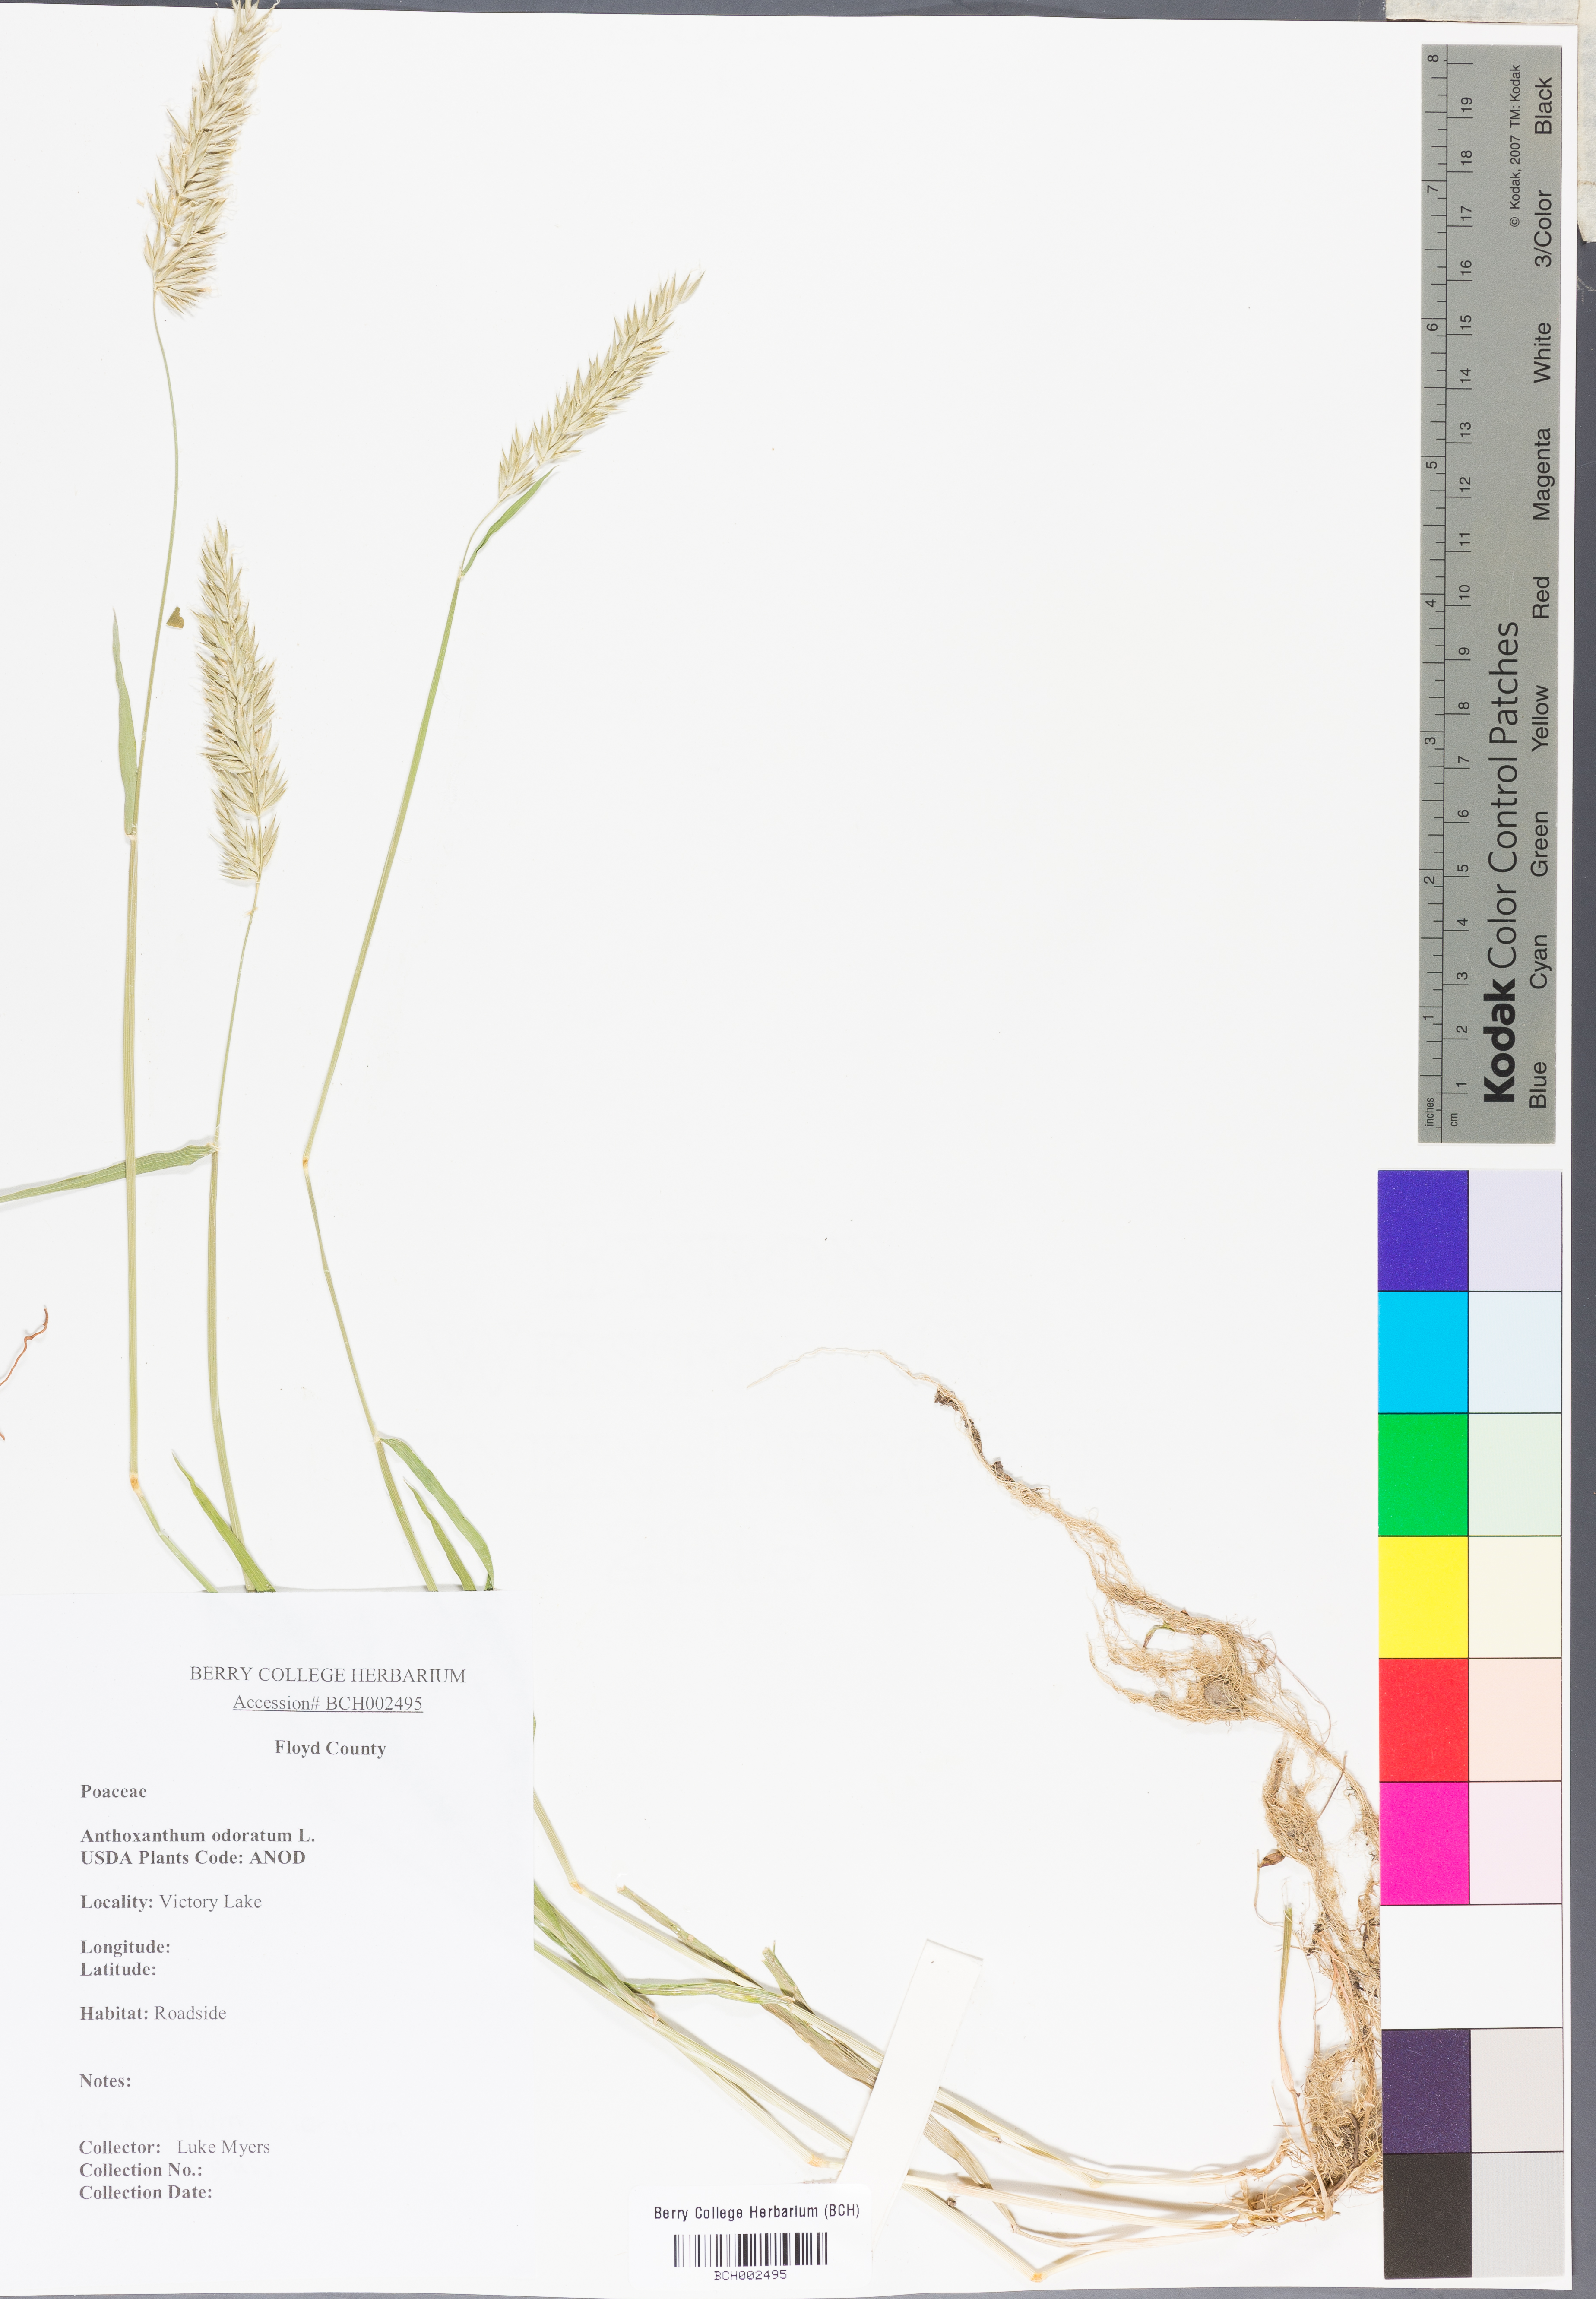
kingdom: Plantae
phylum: Tracheophyta
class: Liliopsida
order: Poales
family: Poaceae
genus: Anthoxanthum
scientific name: Anthoxanthum odoratum
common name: Sweet vernalgrass
